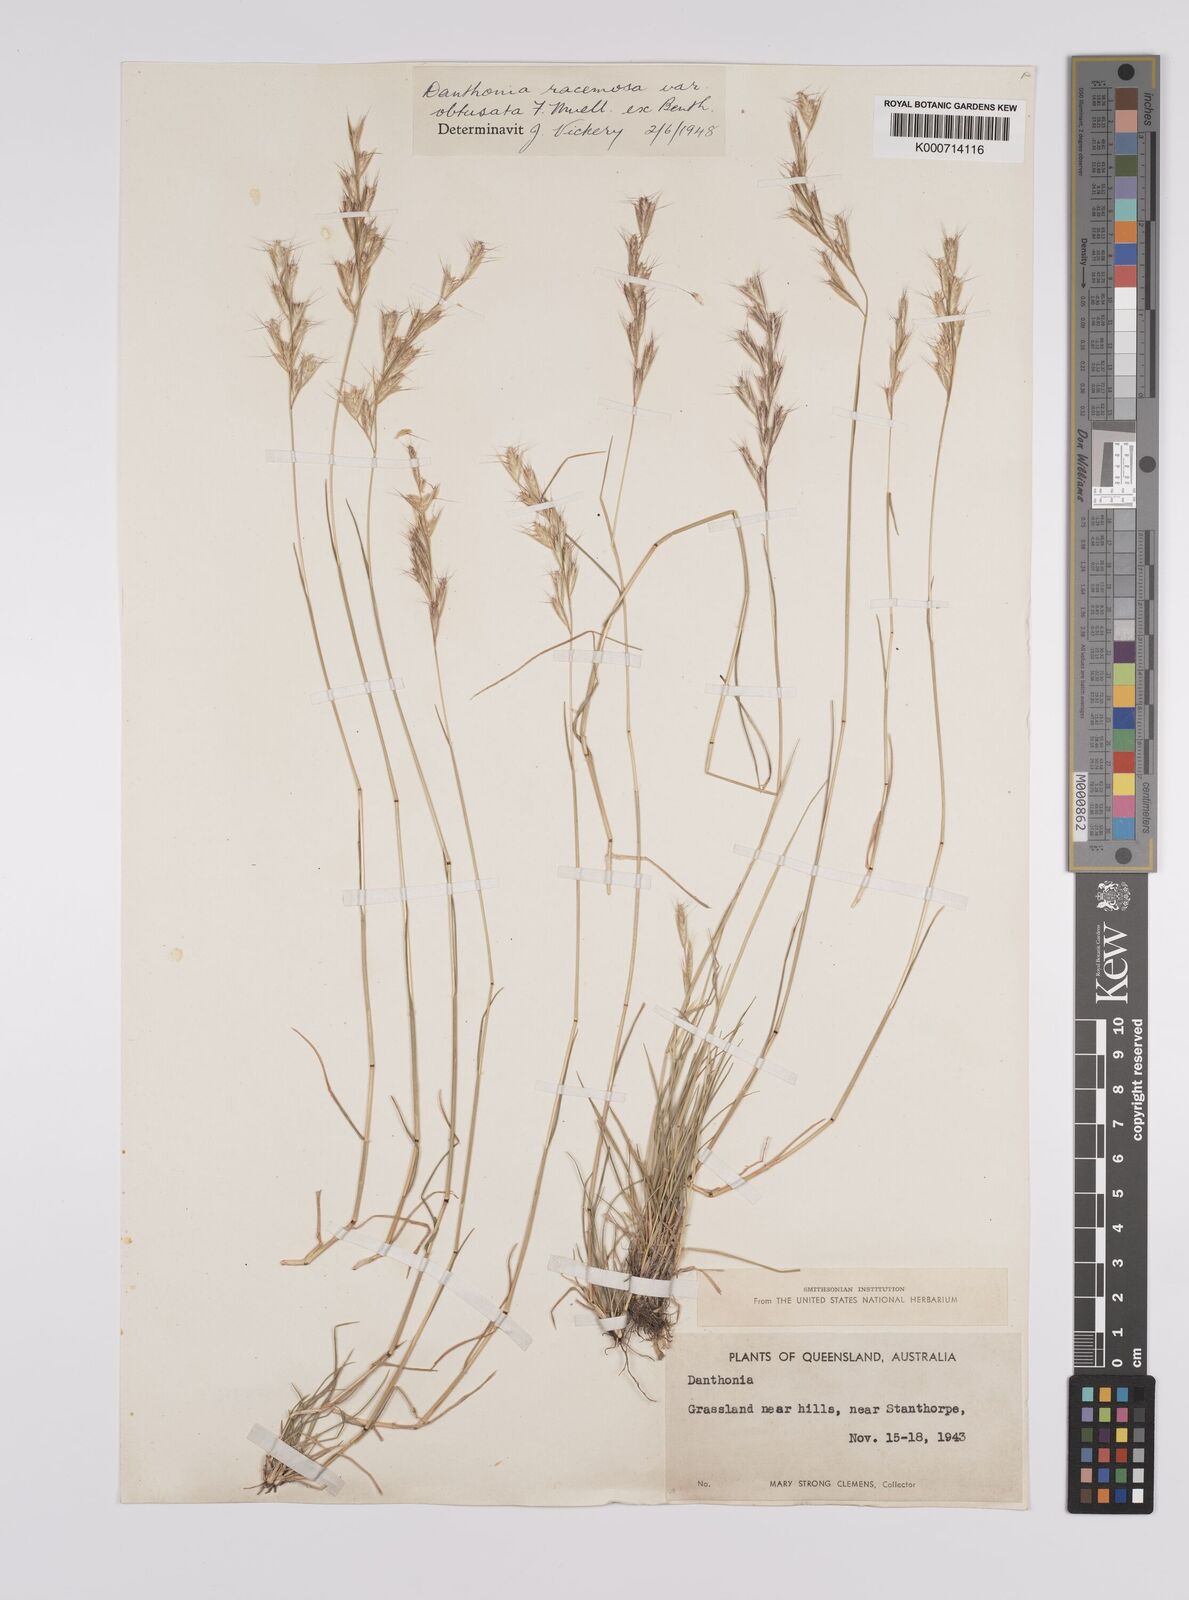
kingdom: Plantae
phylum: Tracheophyta
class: Liliopsida
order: Poales
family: Poaceae
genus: Rytidosperma
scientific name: Rytidosperma racemosum
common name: Wallaby-grass
